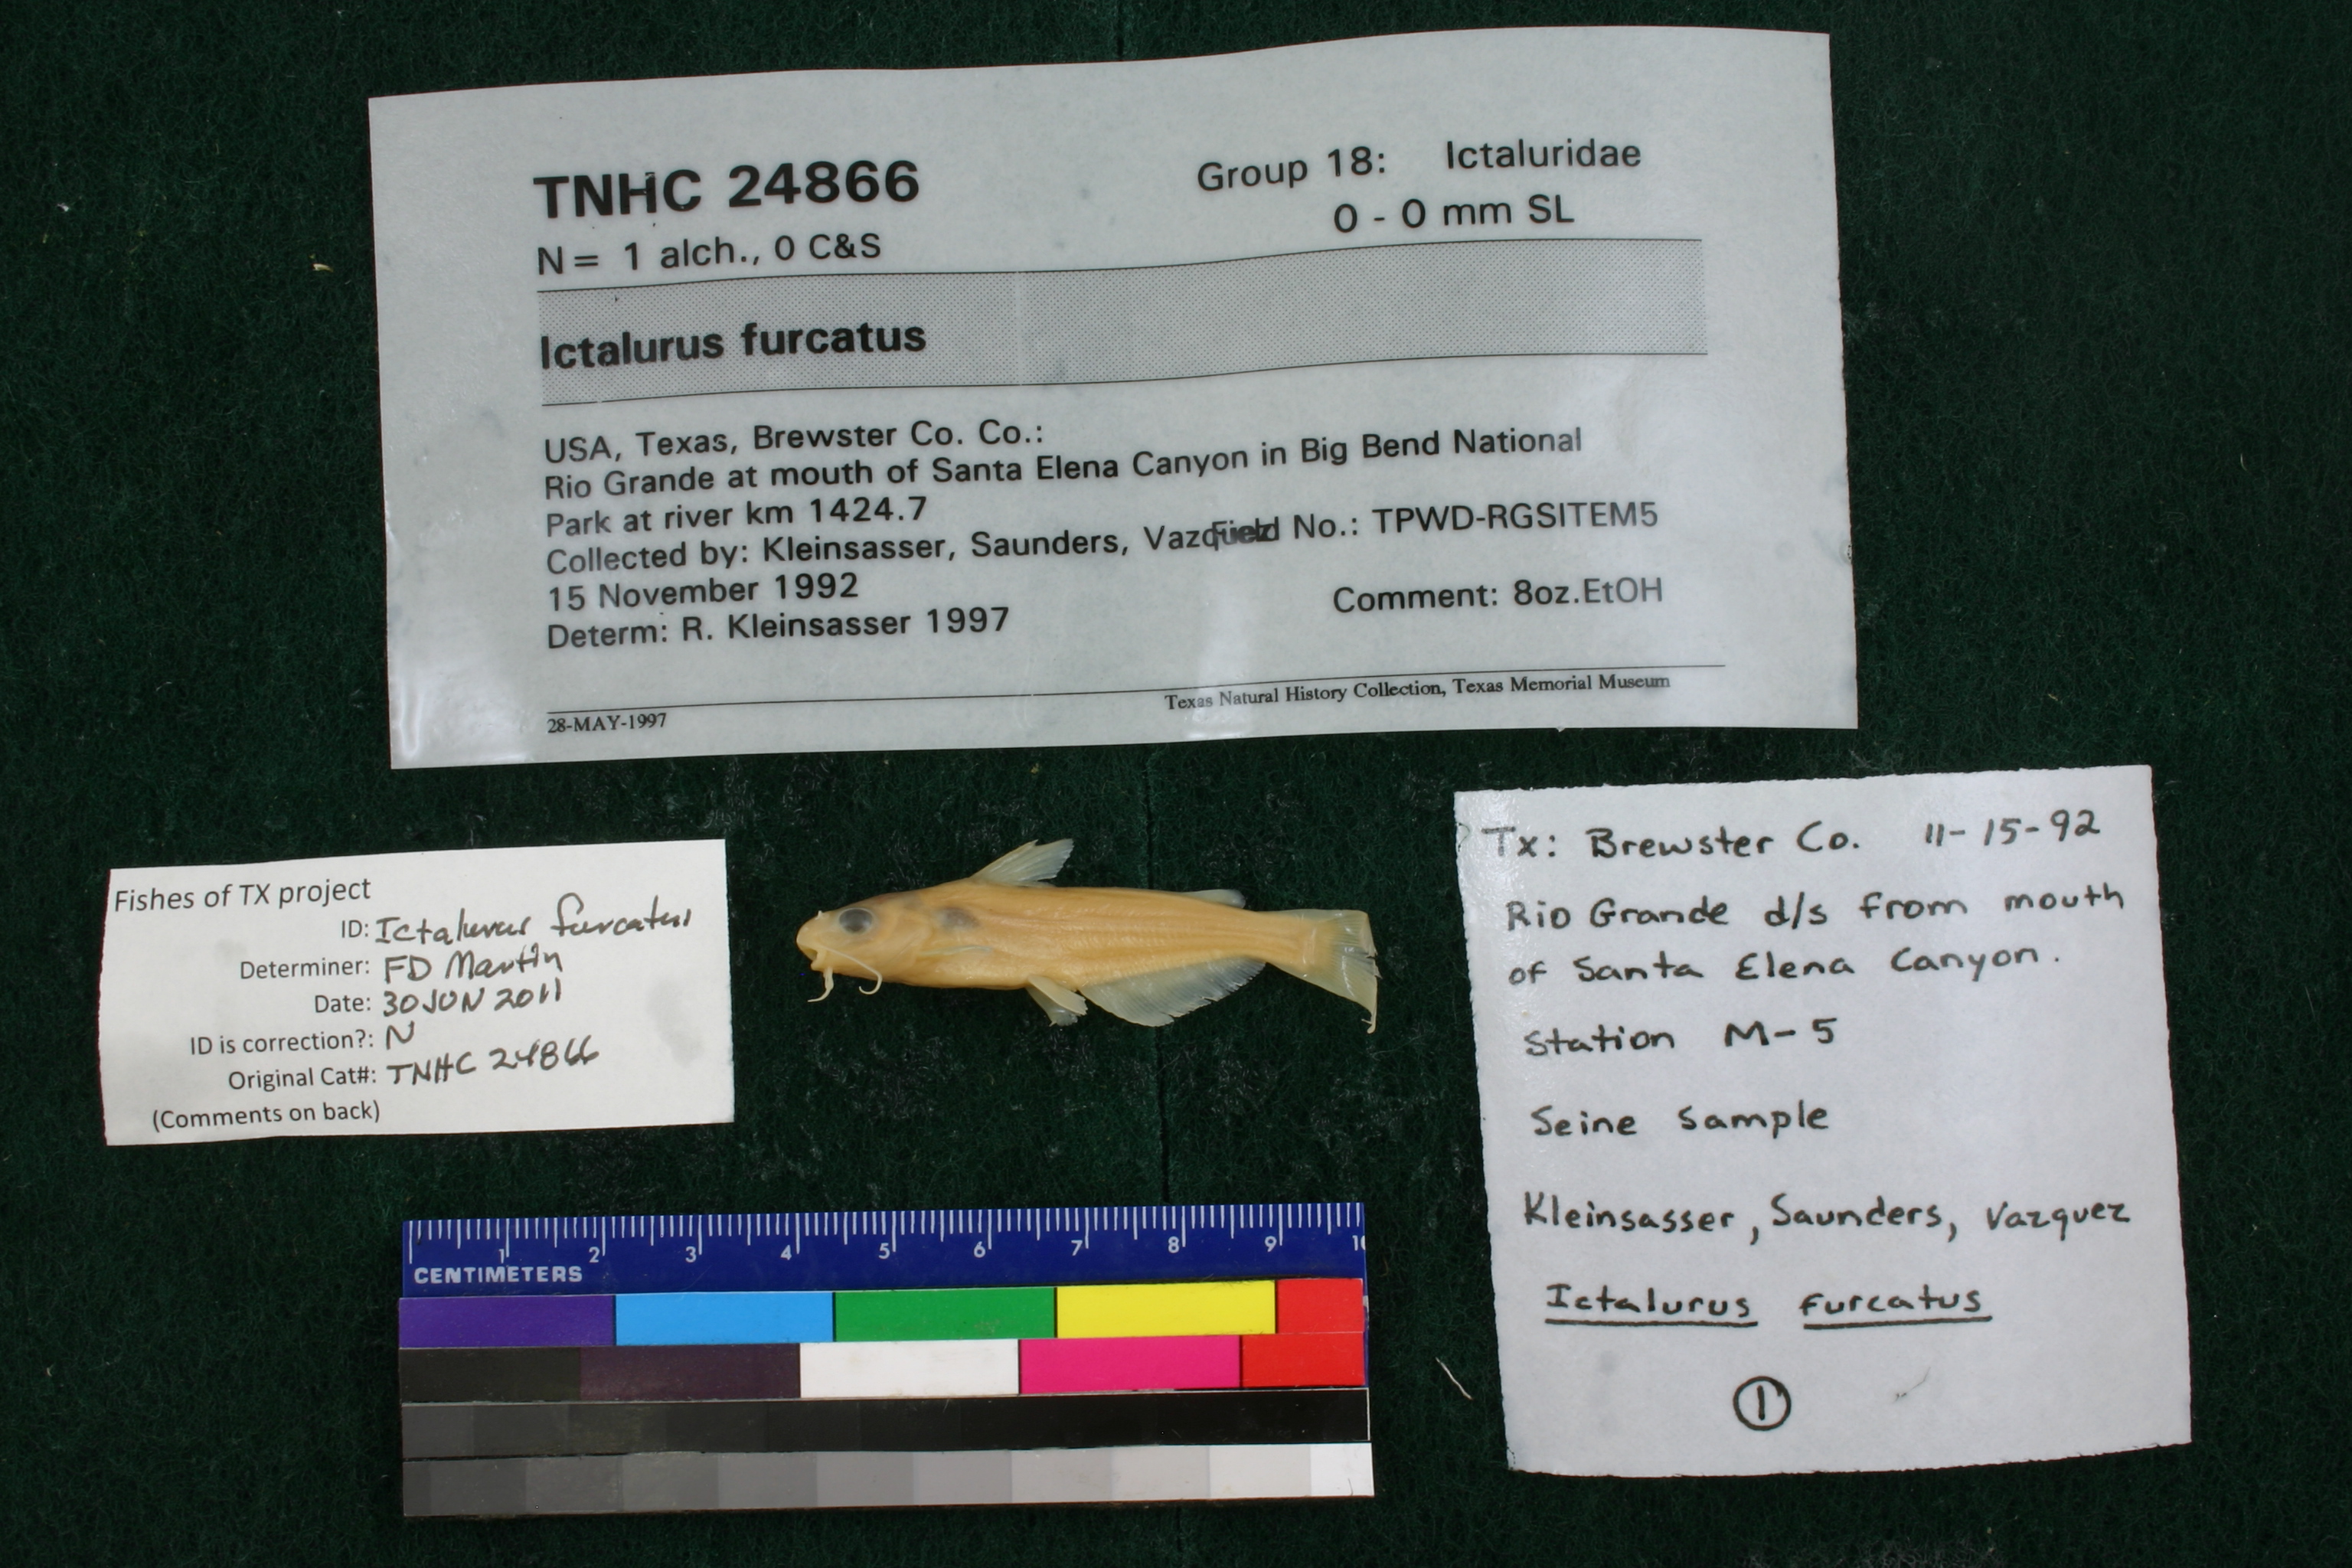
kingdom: Animalia
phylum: Chordata
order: Siluriformes
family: Ictaluridae
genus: Ictalurus
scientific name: Ictalurus furcatus
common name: Blue catfish
